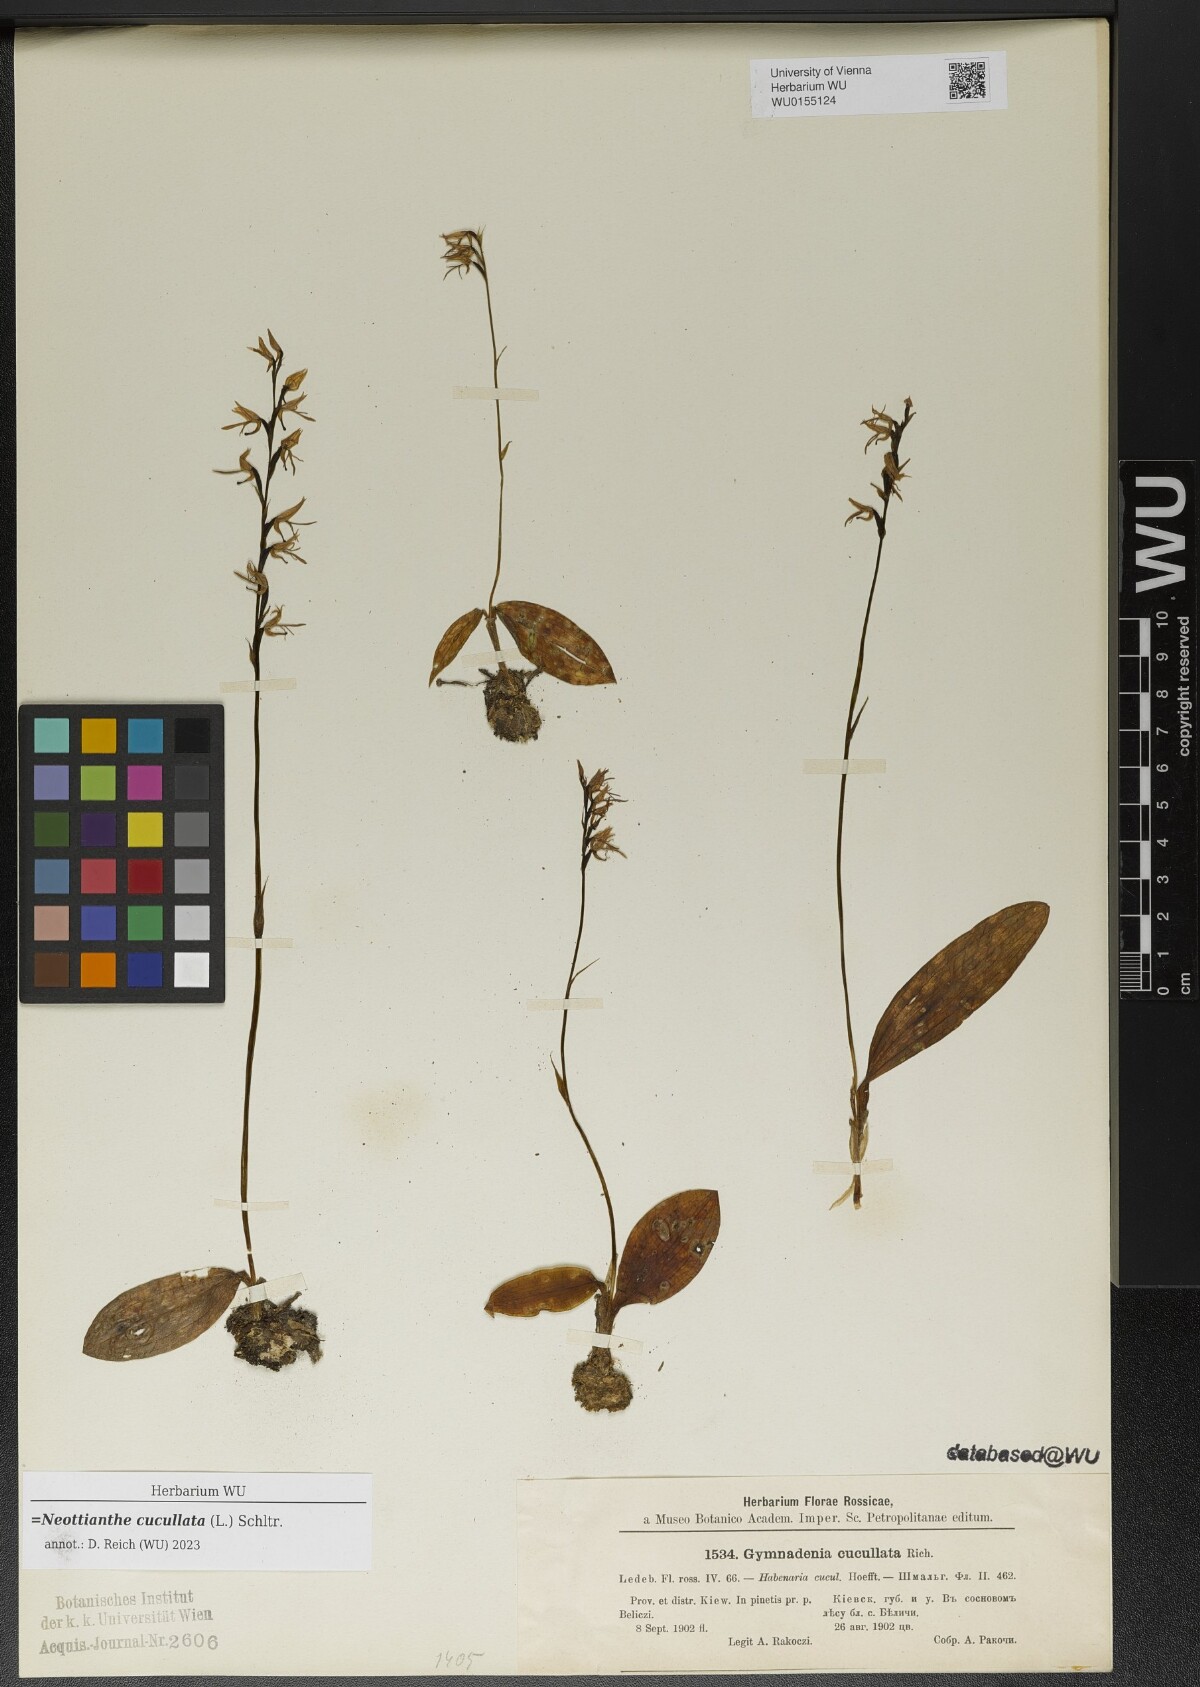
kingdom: Plantae
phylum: Tracheophyta
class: Liliopsida
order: Asparagales
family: Orchidaceae
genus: Hemipilia
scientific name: Hemipilia cucullata
